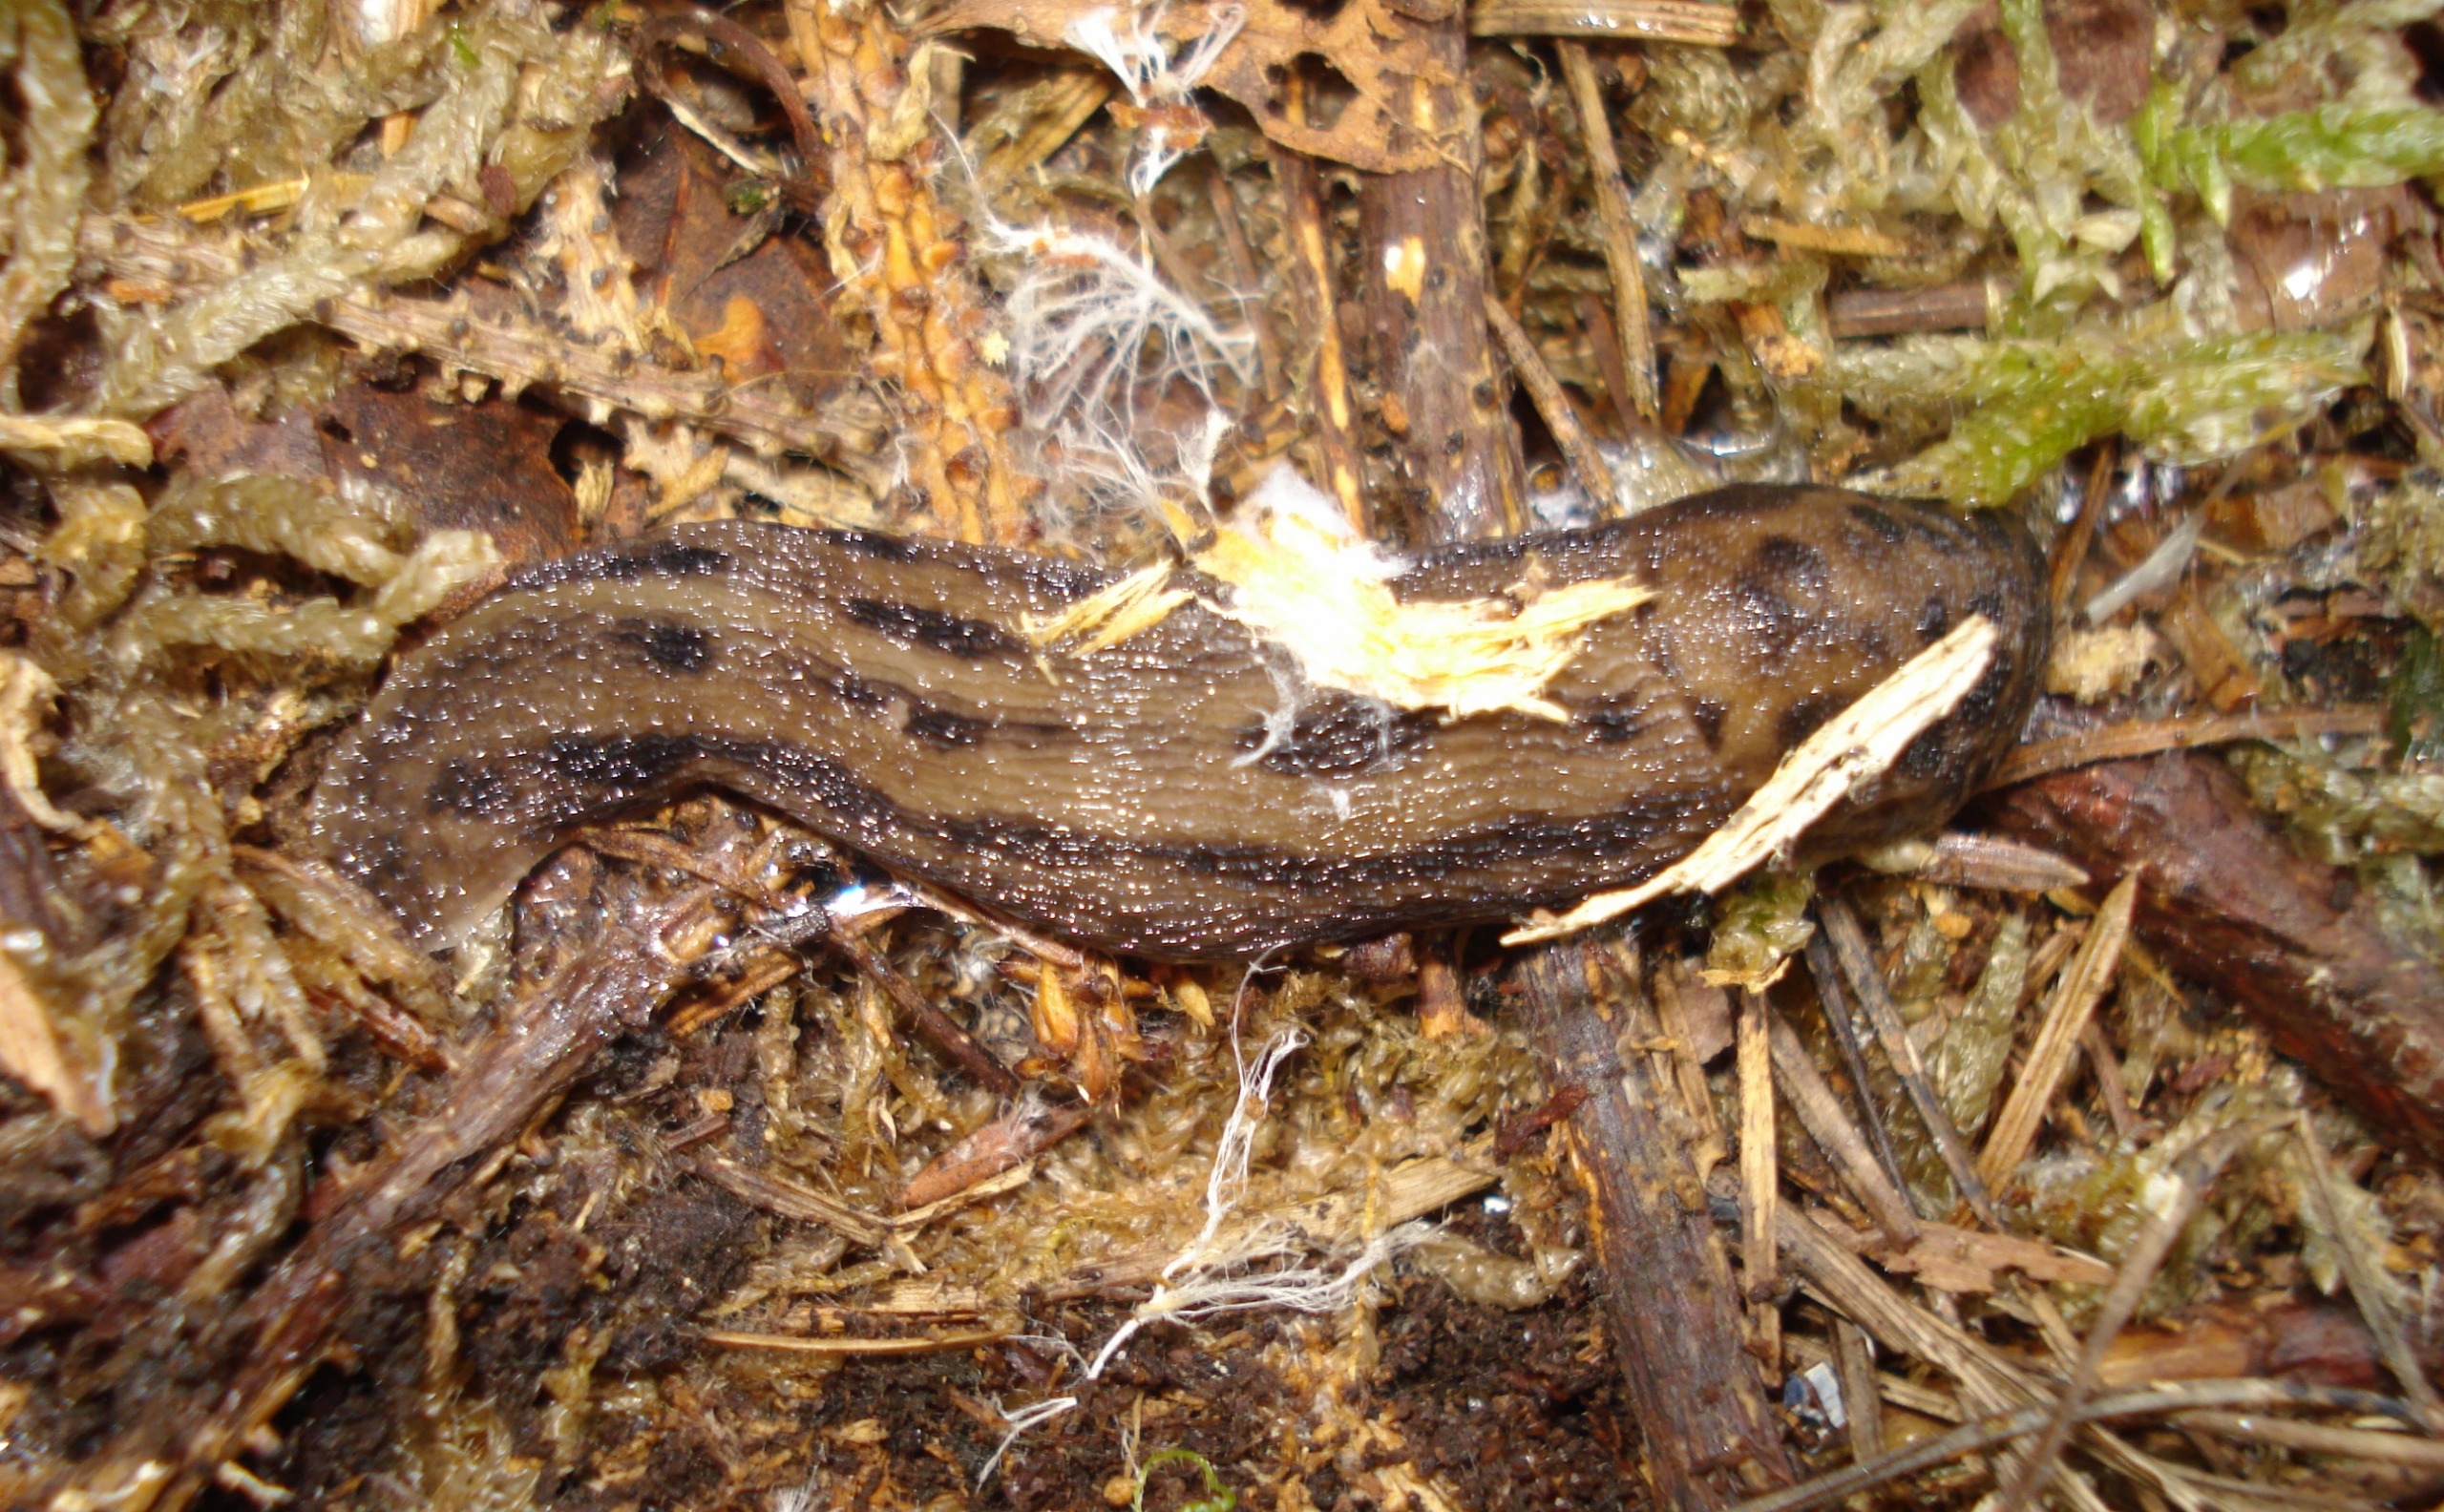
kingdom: Animalia
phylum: Mollusca
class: Gastropoda
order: Stylommatophora
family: Limacidae
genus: Limax
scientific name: Limax maximus
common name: Pantersnegl
